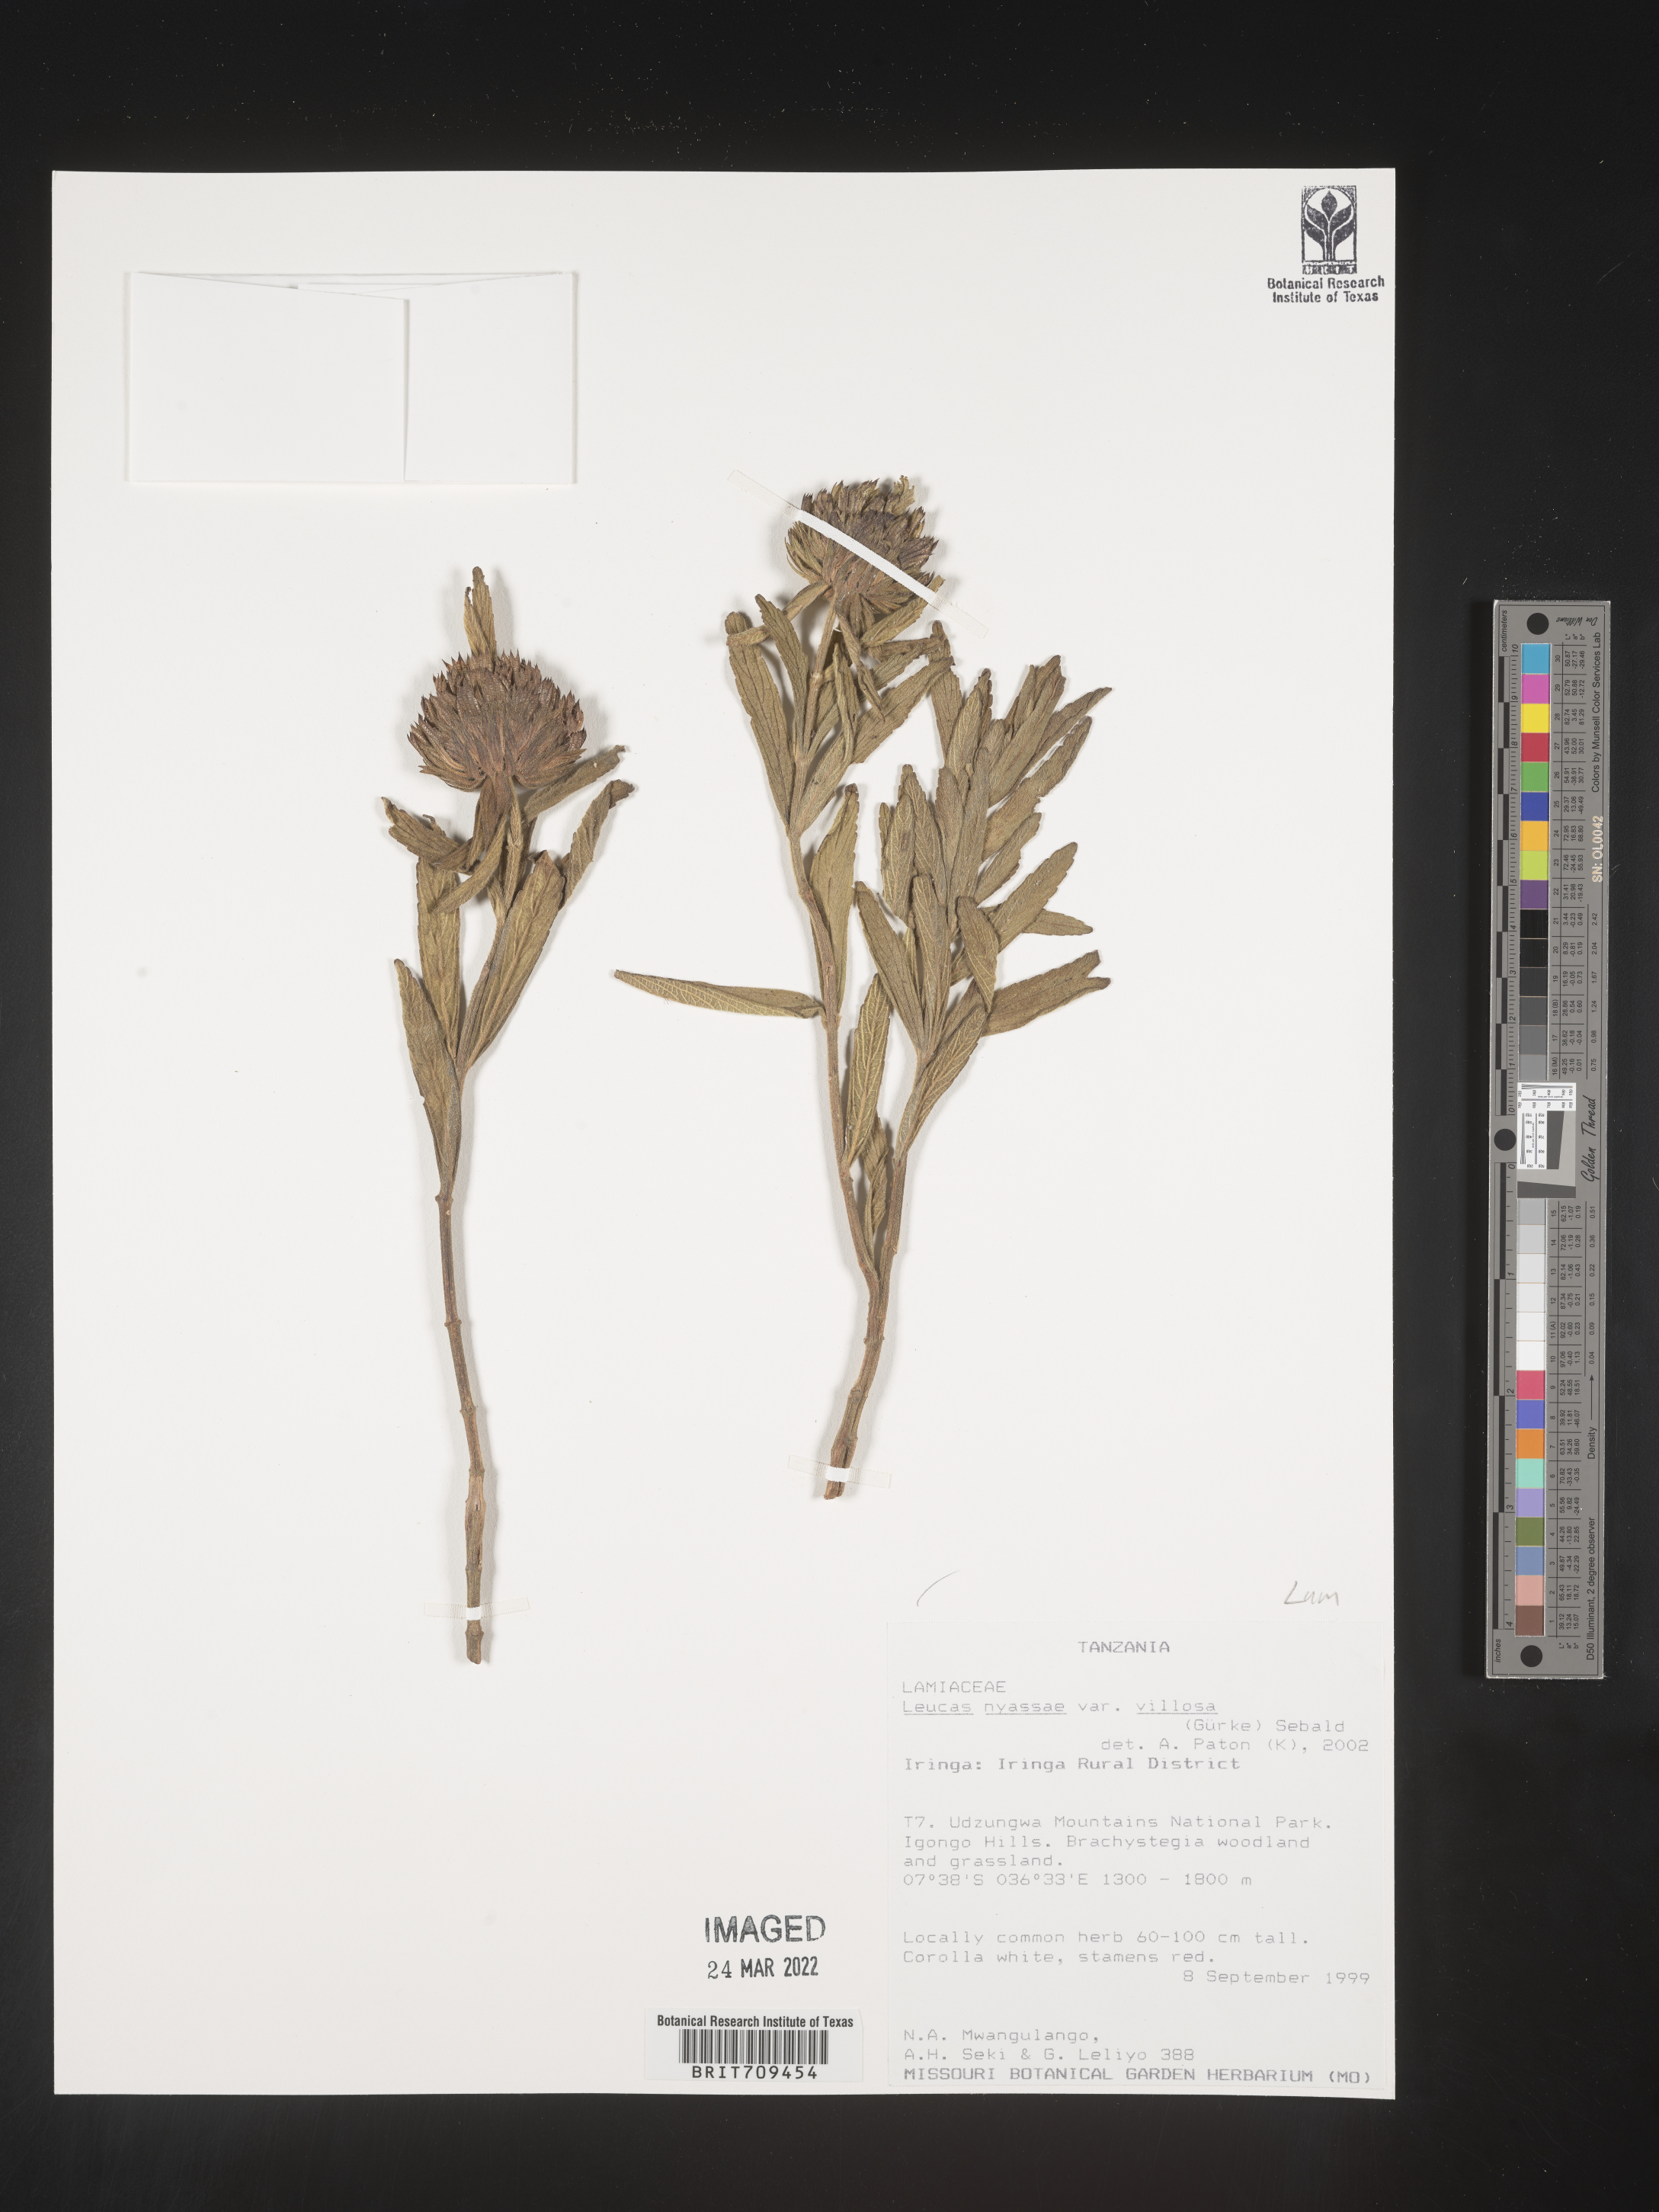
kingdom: Plantae
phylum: Tracheophyta
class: Magnoliopsida
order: Lamiales
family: Lamiaceae
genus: Leucas
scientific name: Leucas
